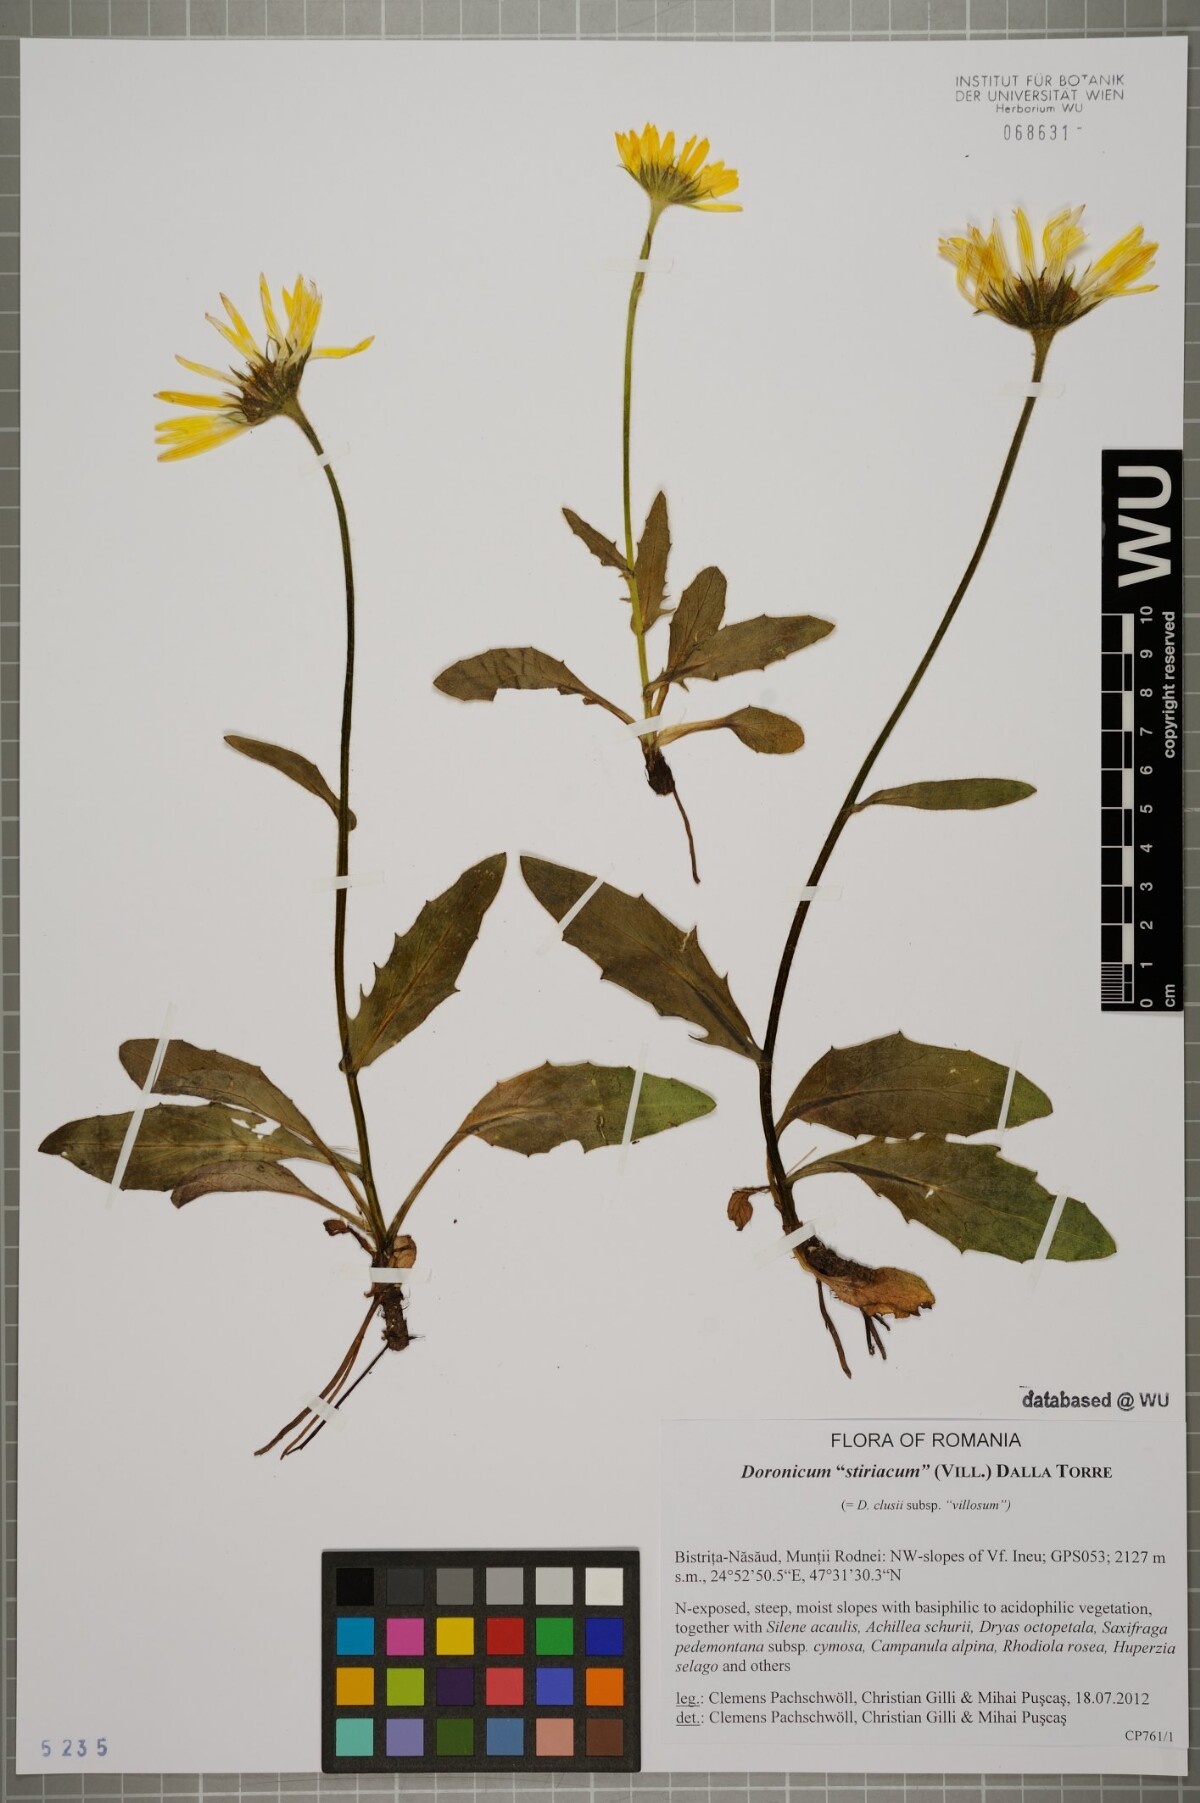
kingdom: Plantae
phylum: Tracheophyta
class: Magnoliopsida
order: Asterales
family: Asteraceae
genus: Doronicum
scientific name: Doronicum clusii
